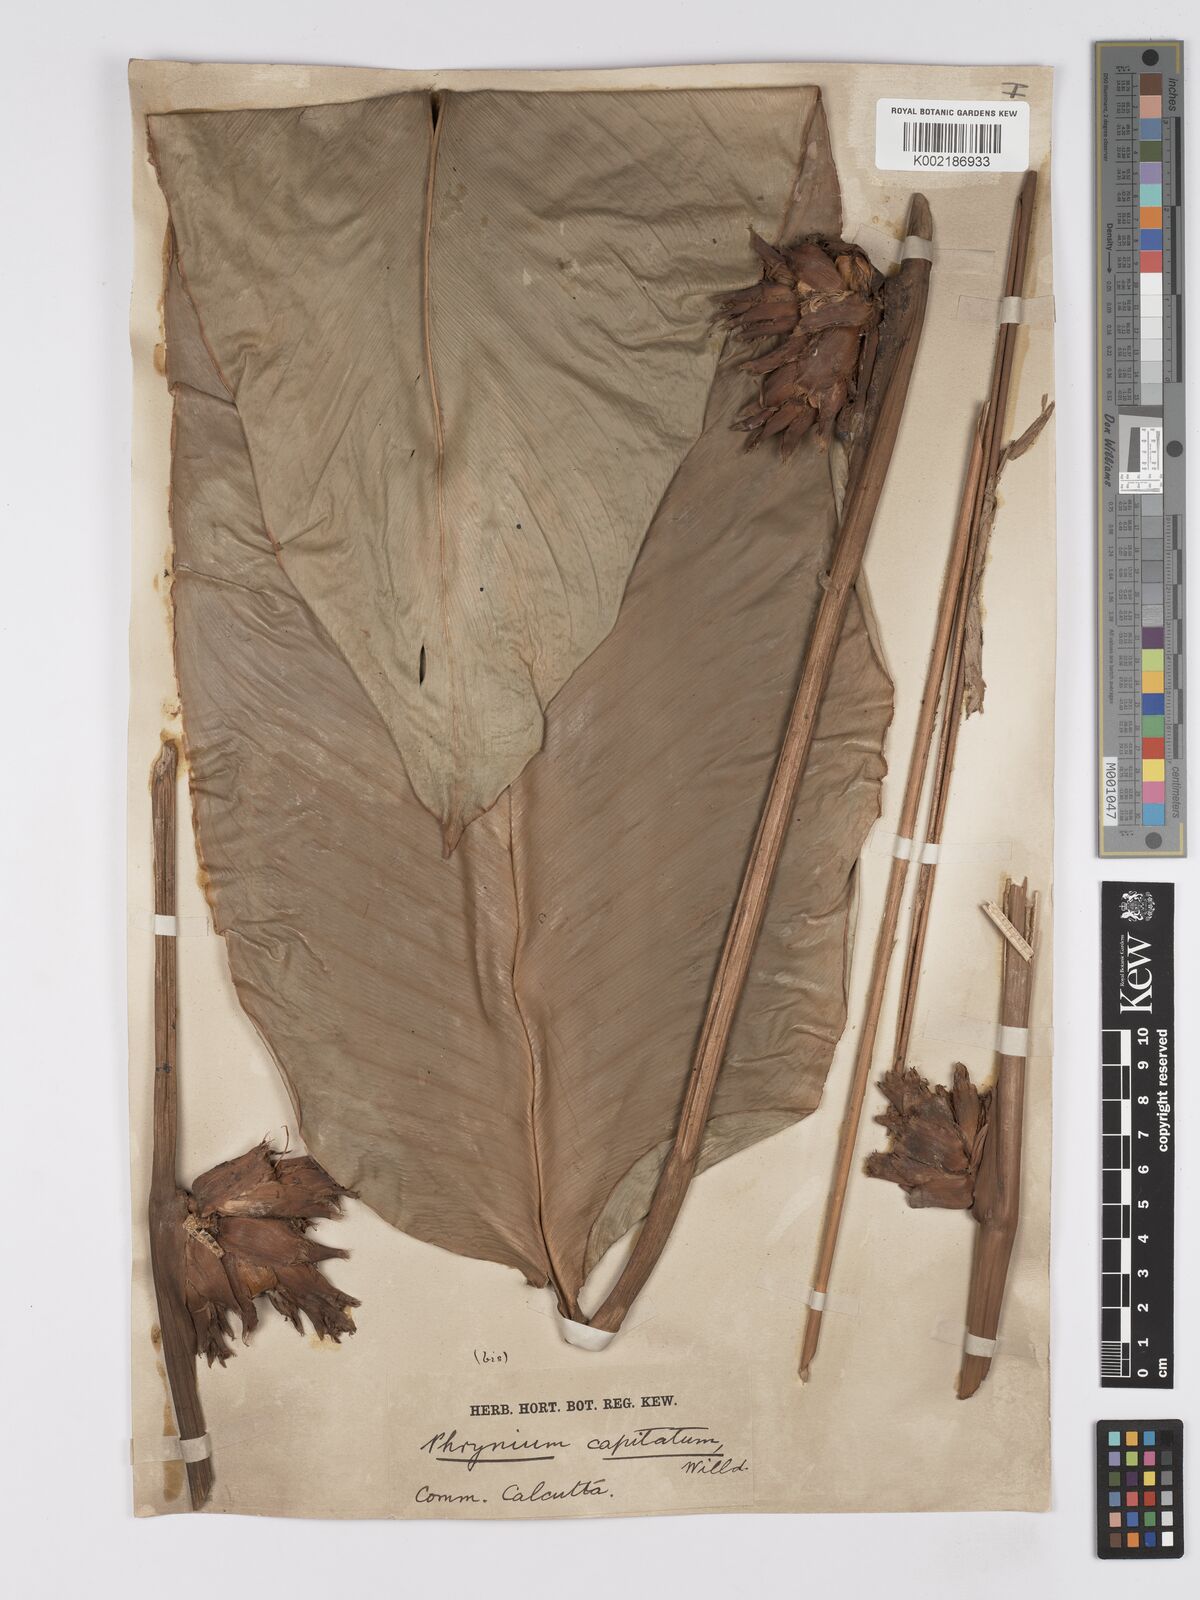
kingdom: Plantae
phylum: Tracheophyta
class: Liliopsida
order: Zingiberales
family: Marantaceae
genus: Phrynium
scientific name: Phrynium pubinerve
